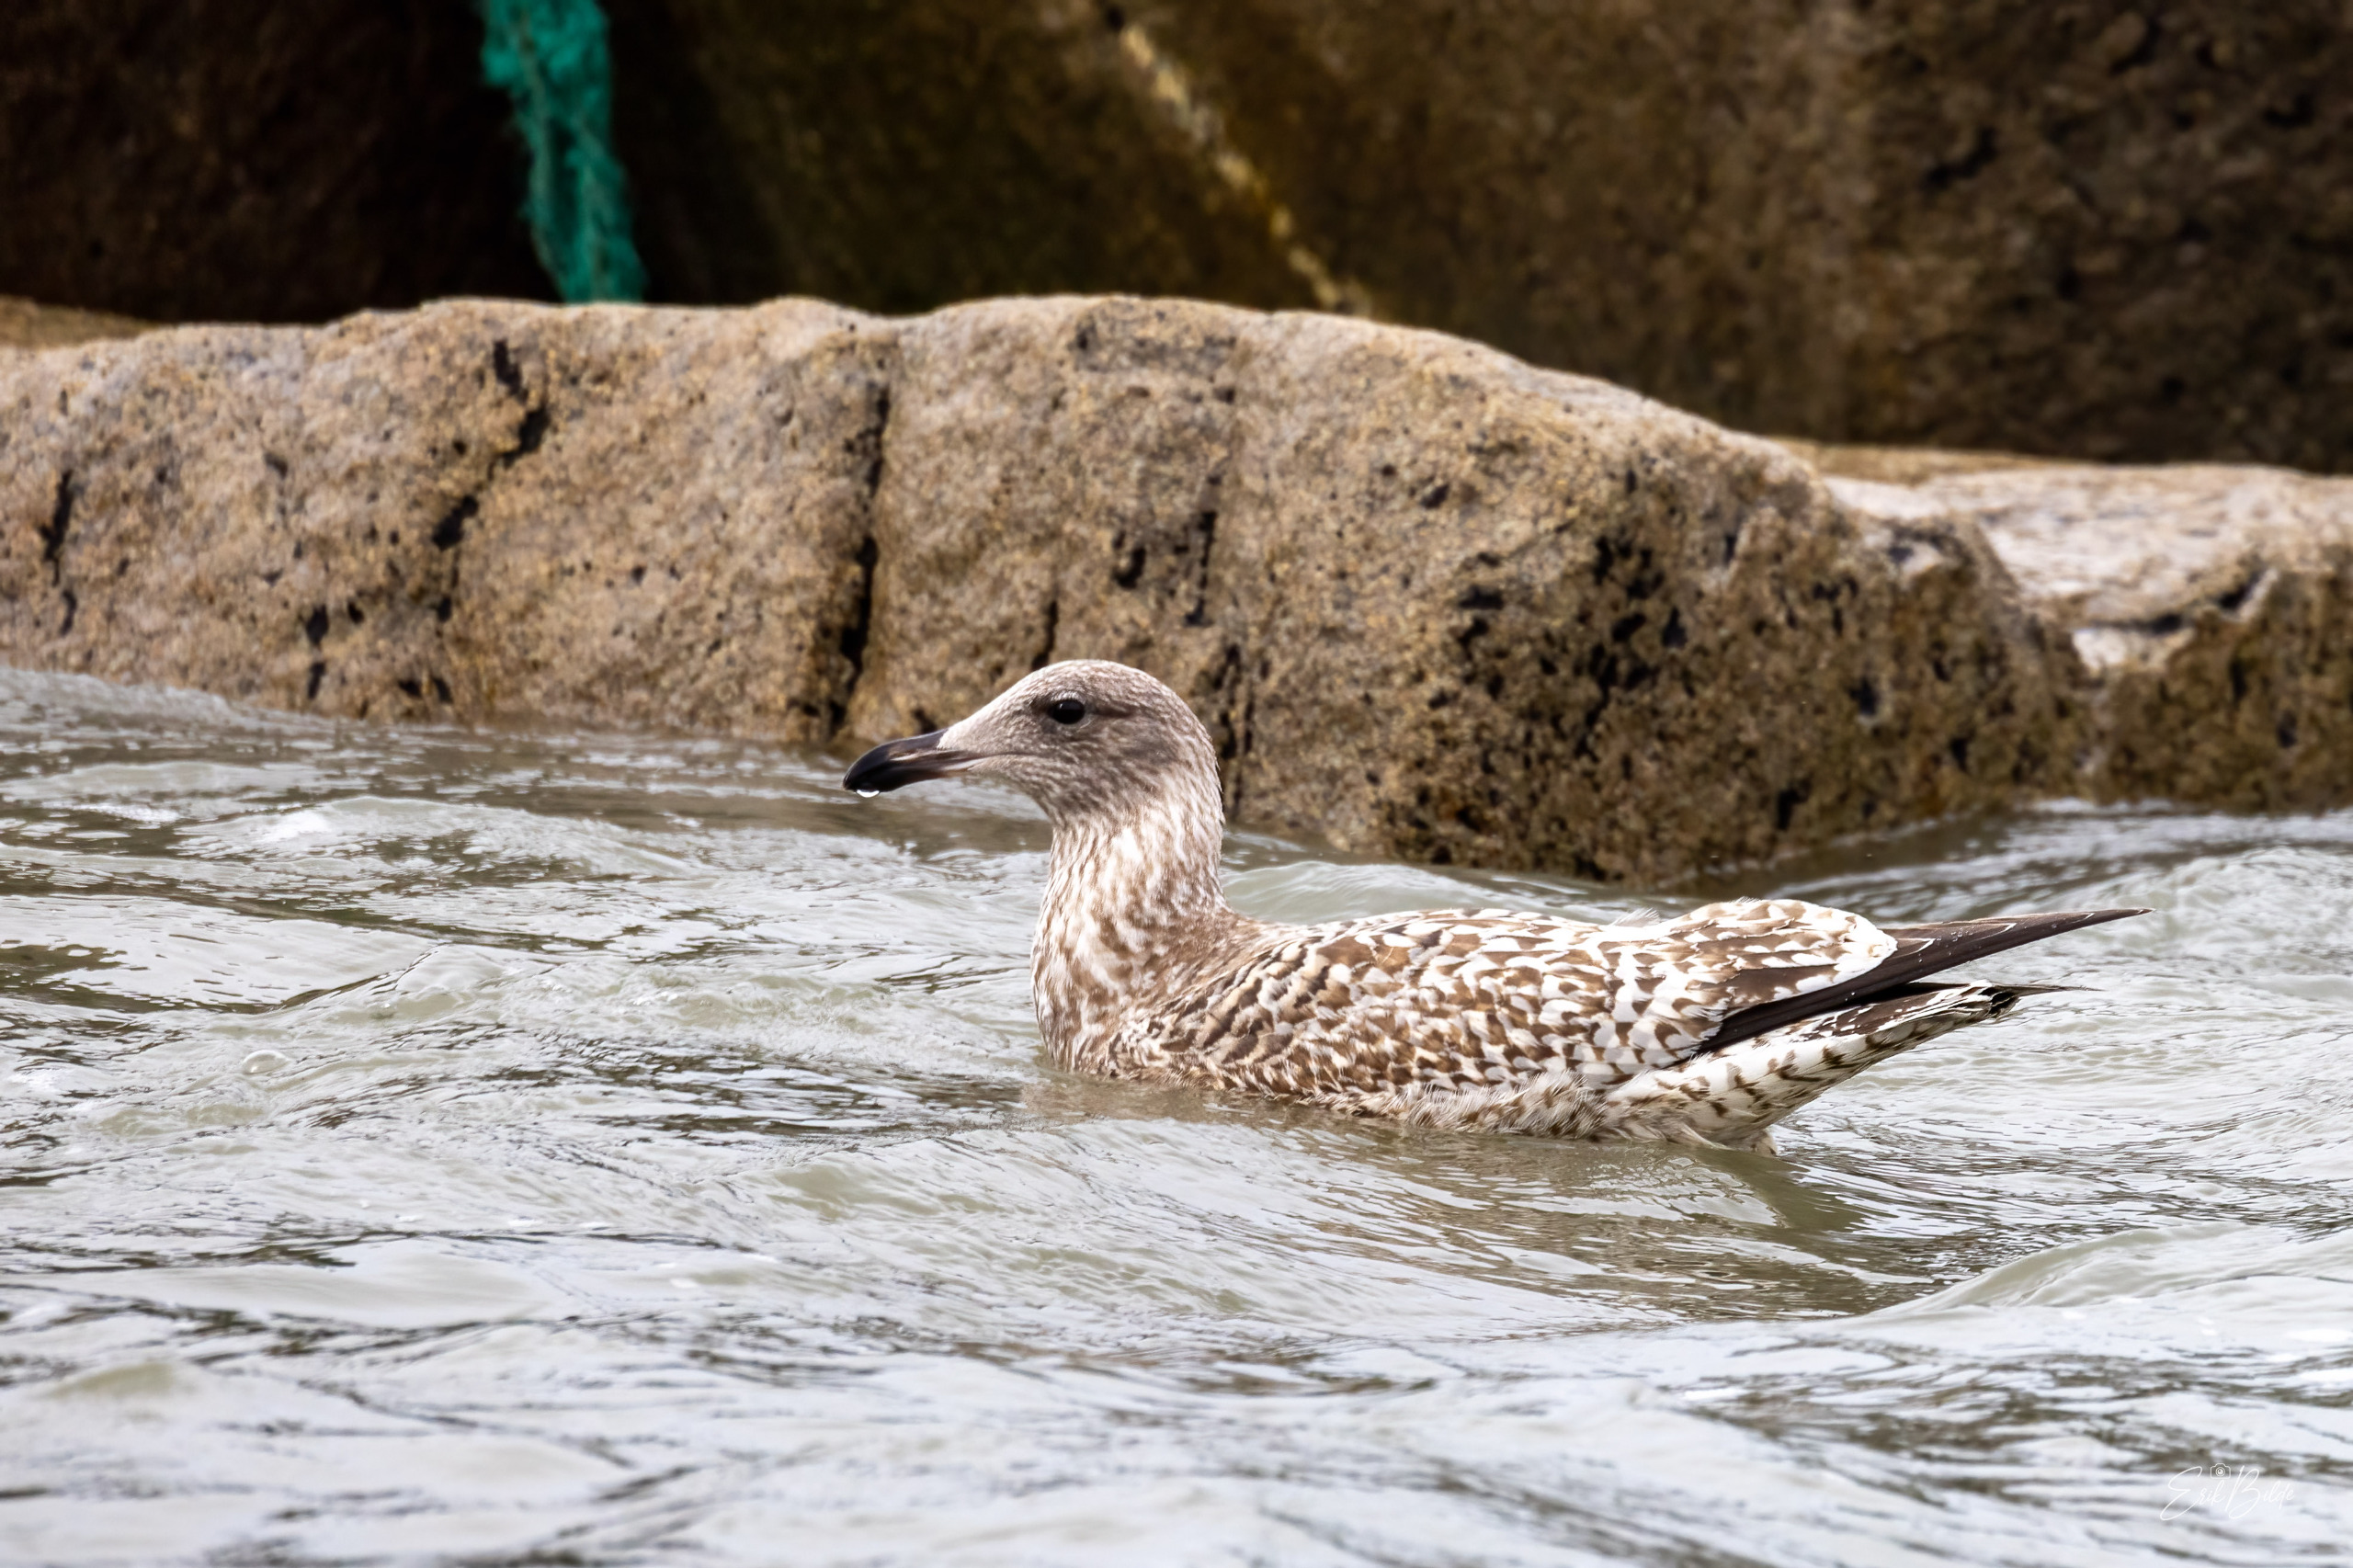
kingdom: Animalia
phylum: Chordata
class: Aves
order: Charadriiformes
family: Laridae
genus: Larus
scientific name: Larus argentatus
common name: Sølvmåge
